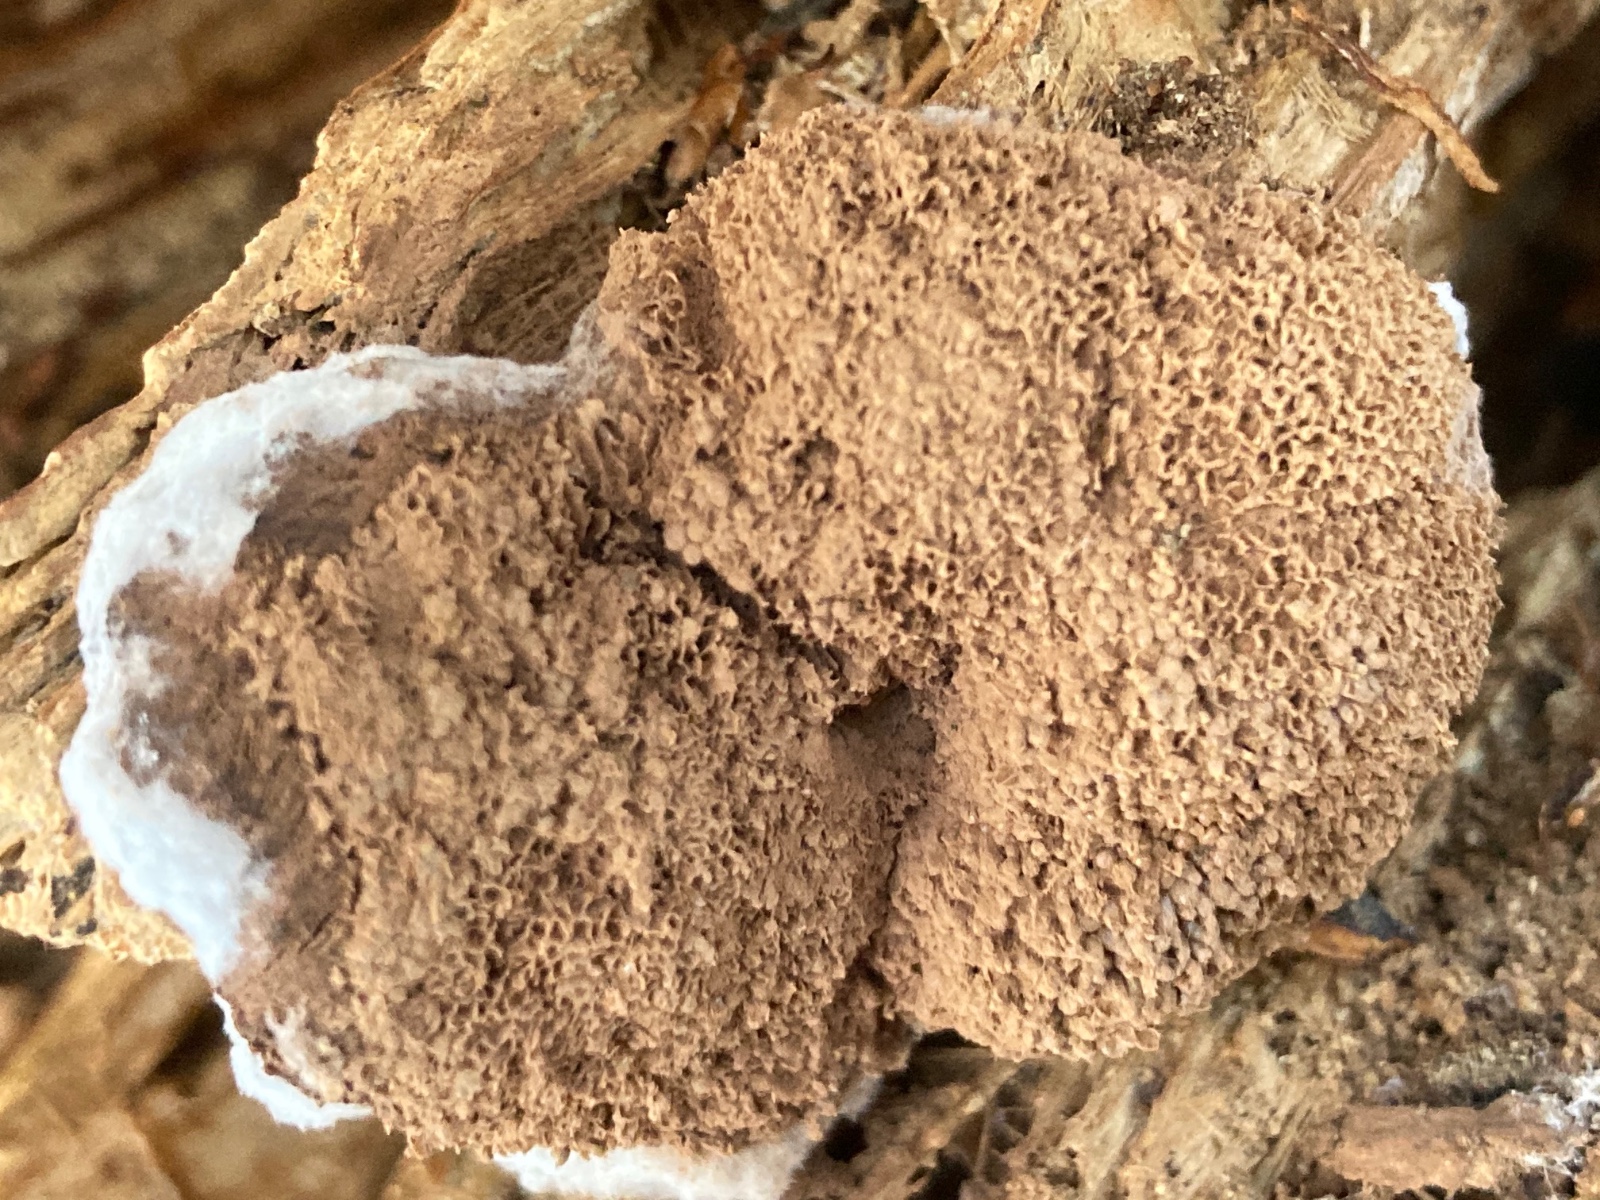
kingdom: Protozoa
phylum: Mycetozoa
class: Myxomycetes
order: Cribrariales
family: Tubiferaceae
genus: Tubifera
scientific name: Tubifera ferruginosa
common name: kanel-støvrør
